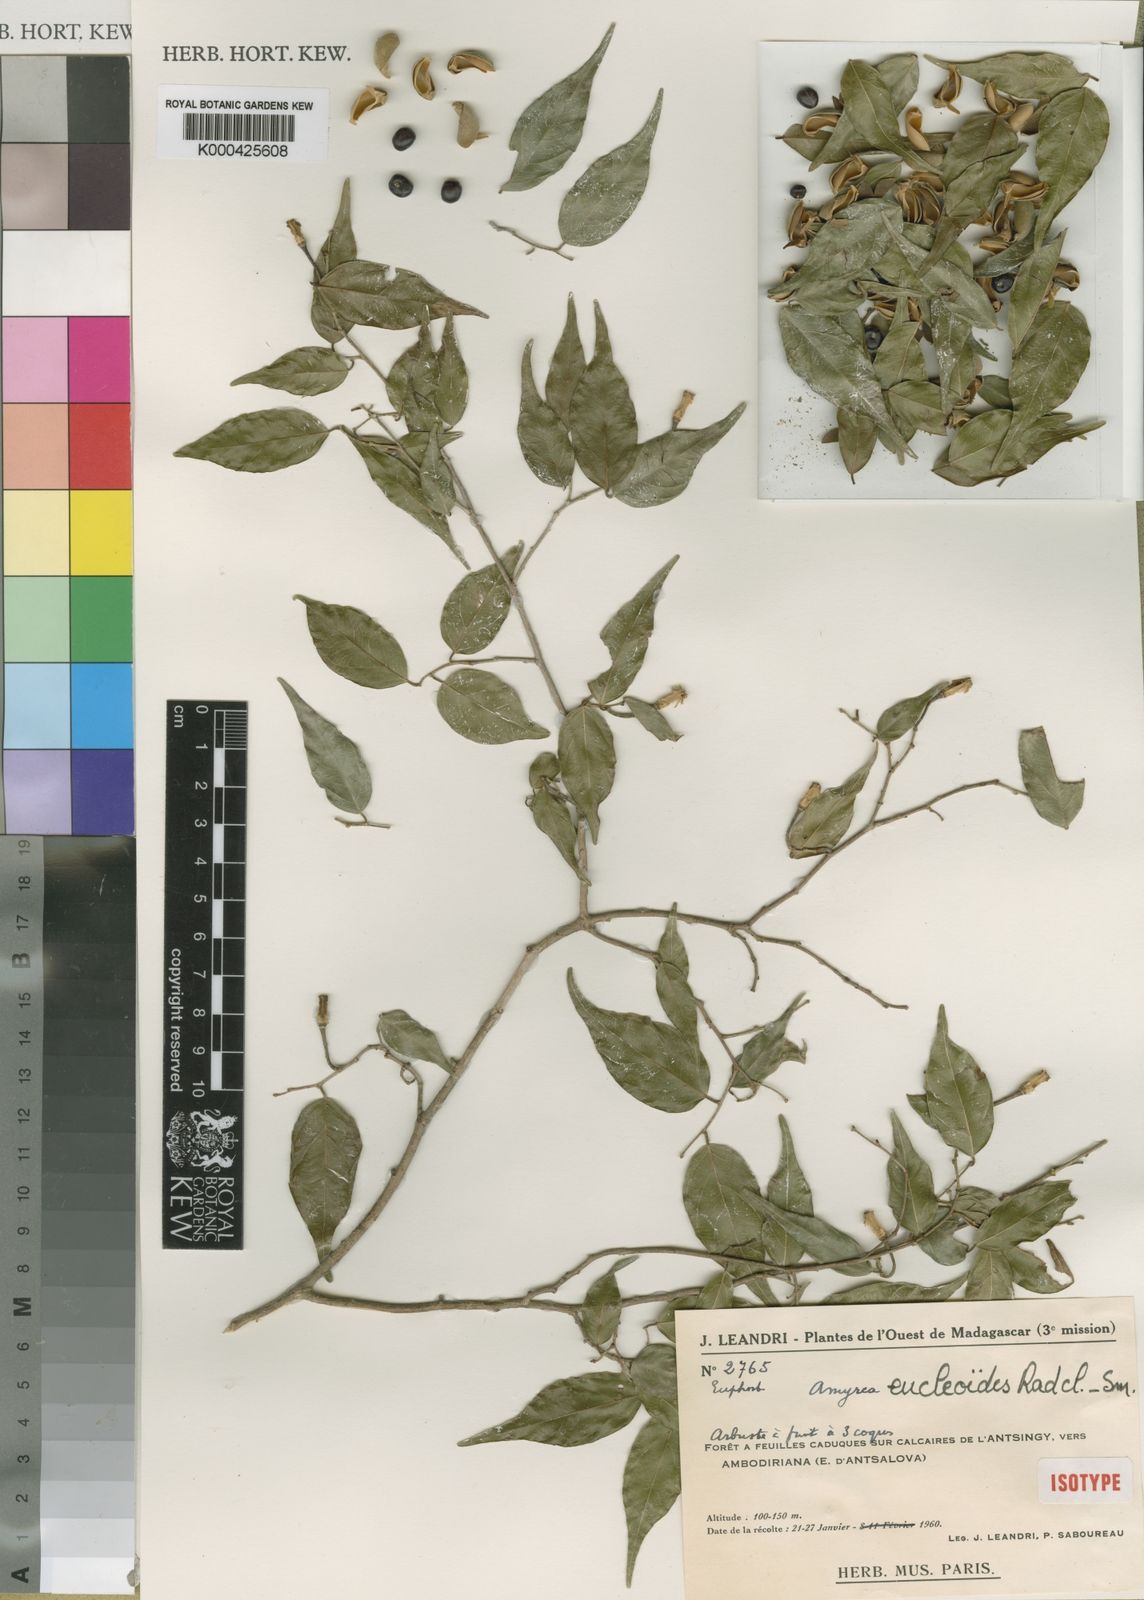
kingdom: Plantae
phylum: Tracheophyta
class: Magnoliopsida
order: Malpighiales
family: Euphorbiaceae
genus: Amyrea
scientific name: Amyrea eucleoides
